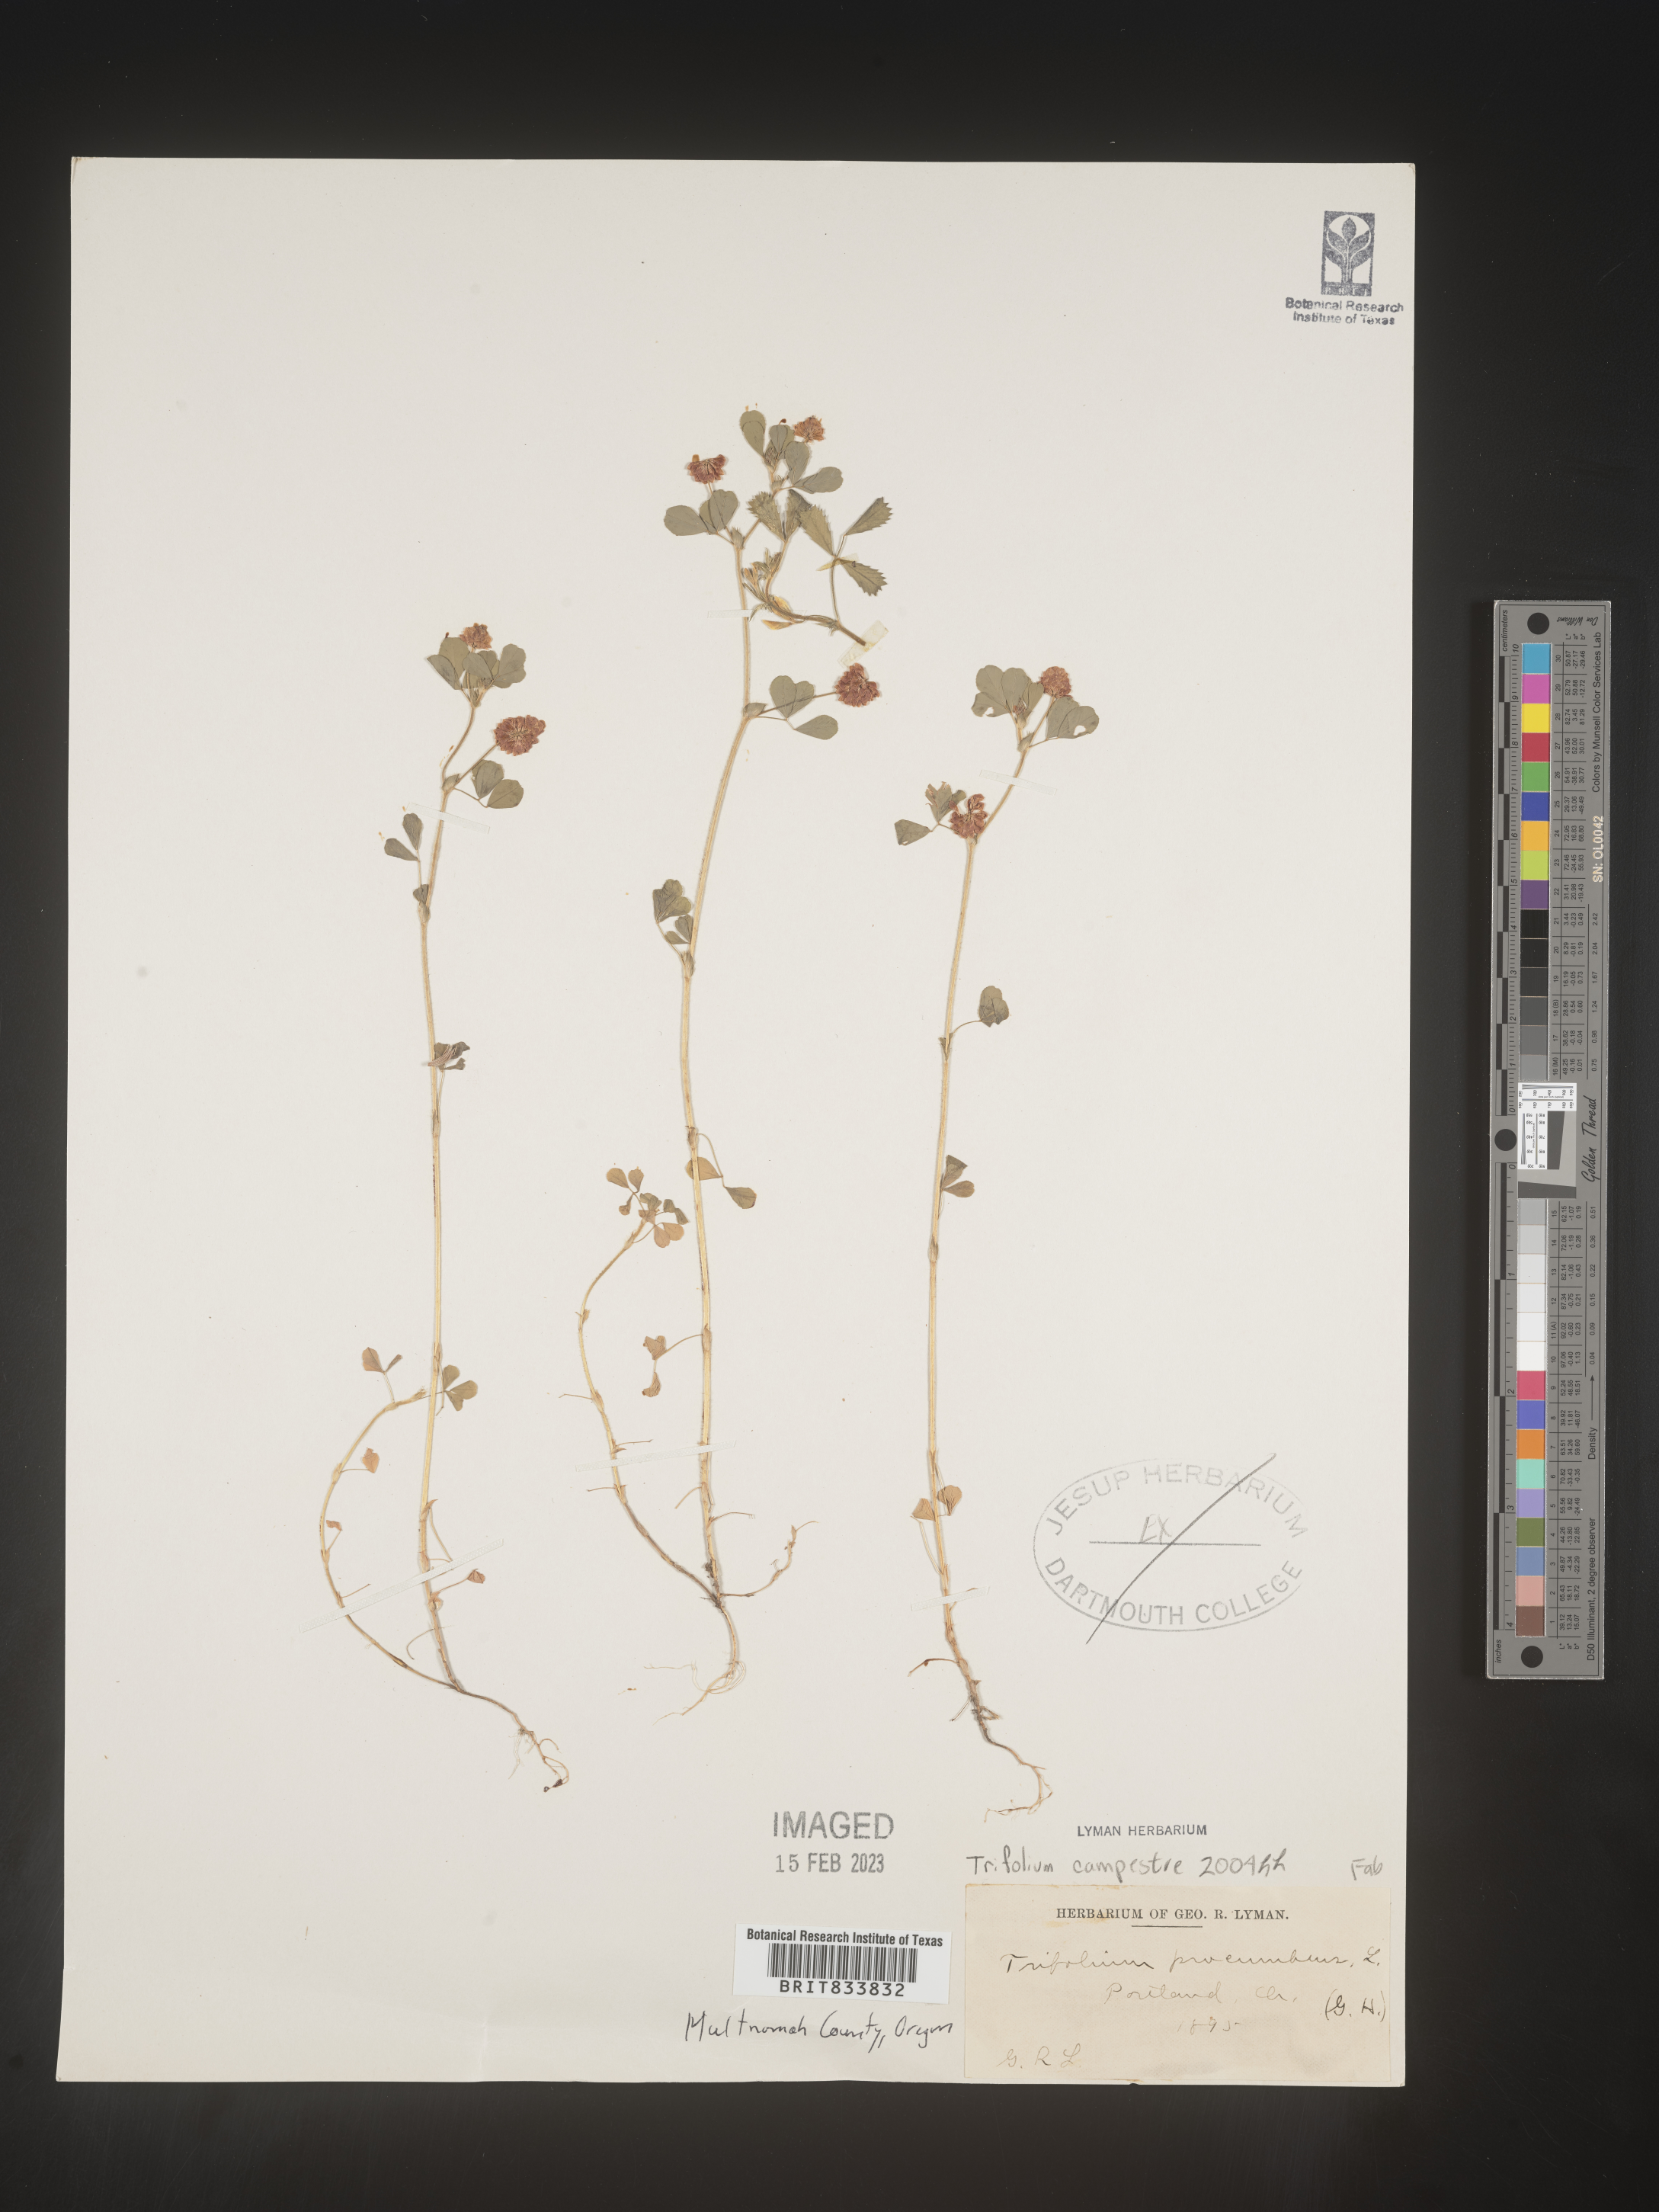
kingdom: Plantae
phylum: Tracheophyta
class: Magnoliopsida
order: Fabales
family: Fabaceae
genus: Trifolium
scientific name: Trifolium campestre
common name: Field clover
